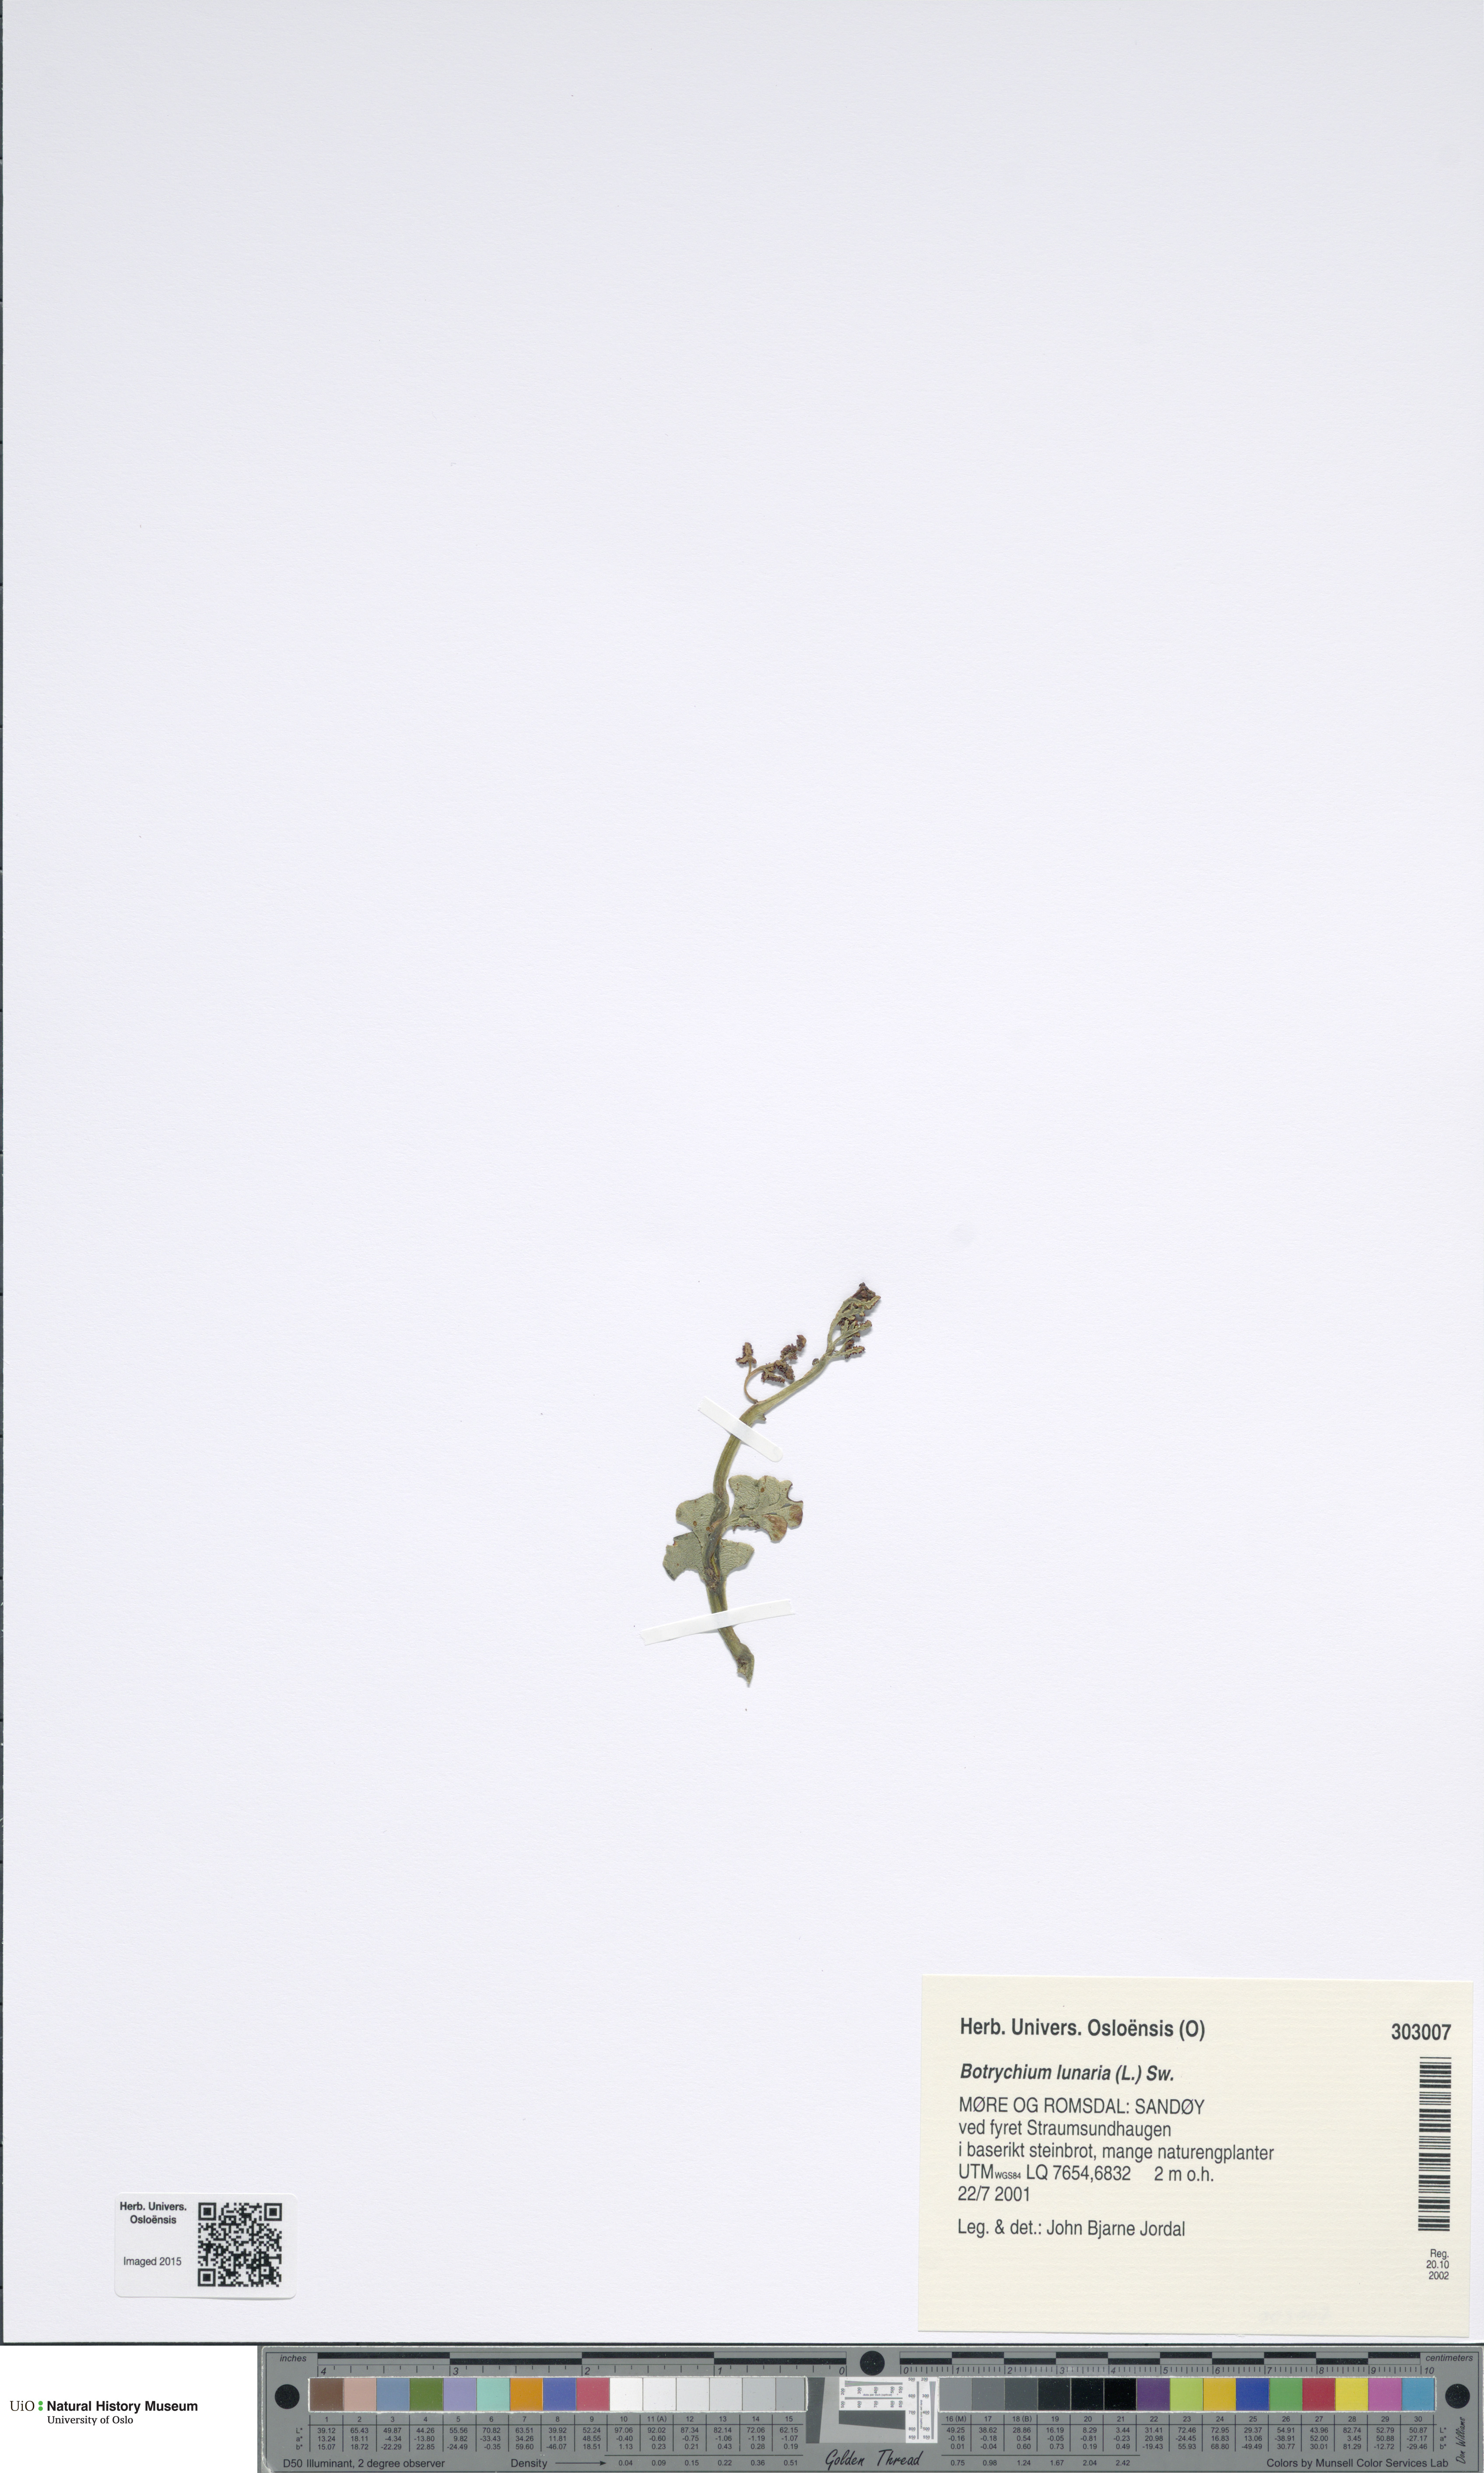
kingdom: Plantae
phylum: Tracheophyta
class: Polypodiopsida
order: Ophioglossales
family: Ophioglossaceae
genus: Botrychium
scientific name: Botrychium lunaria
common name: Moonwort
